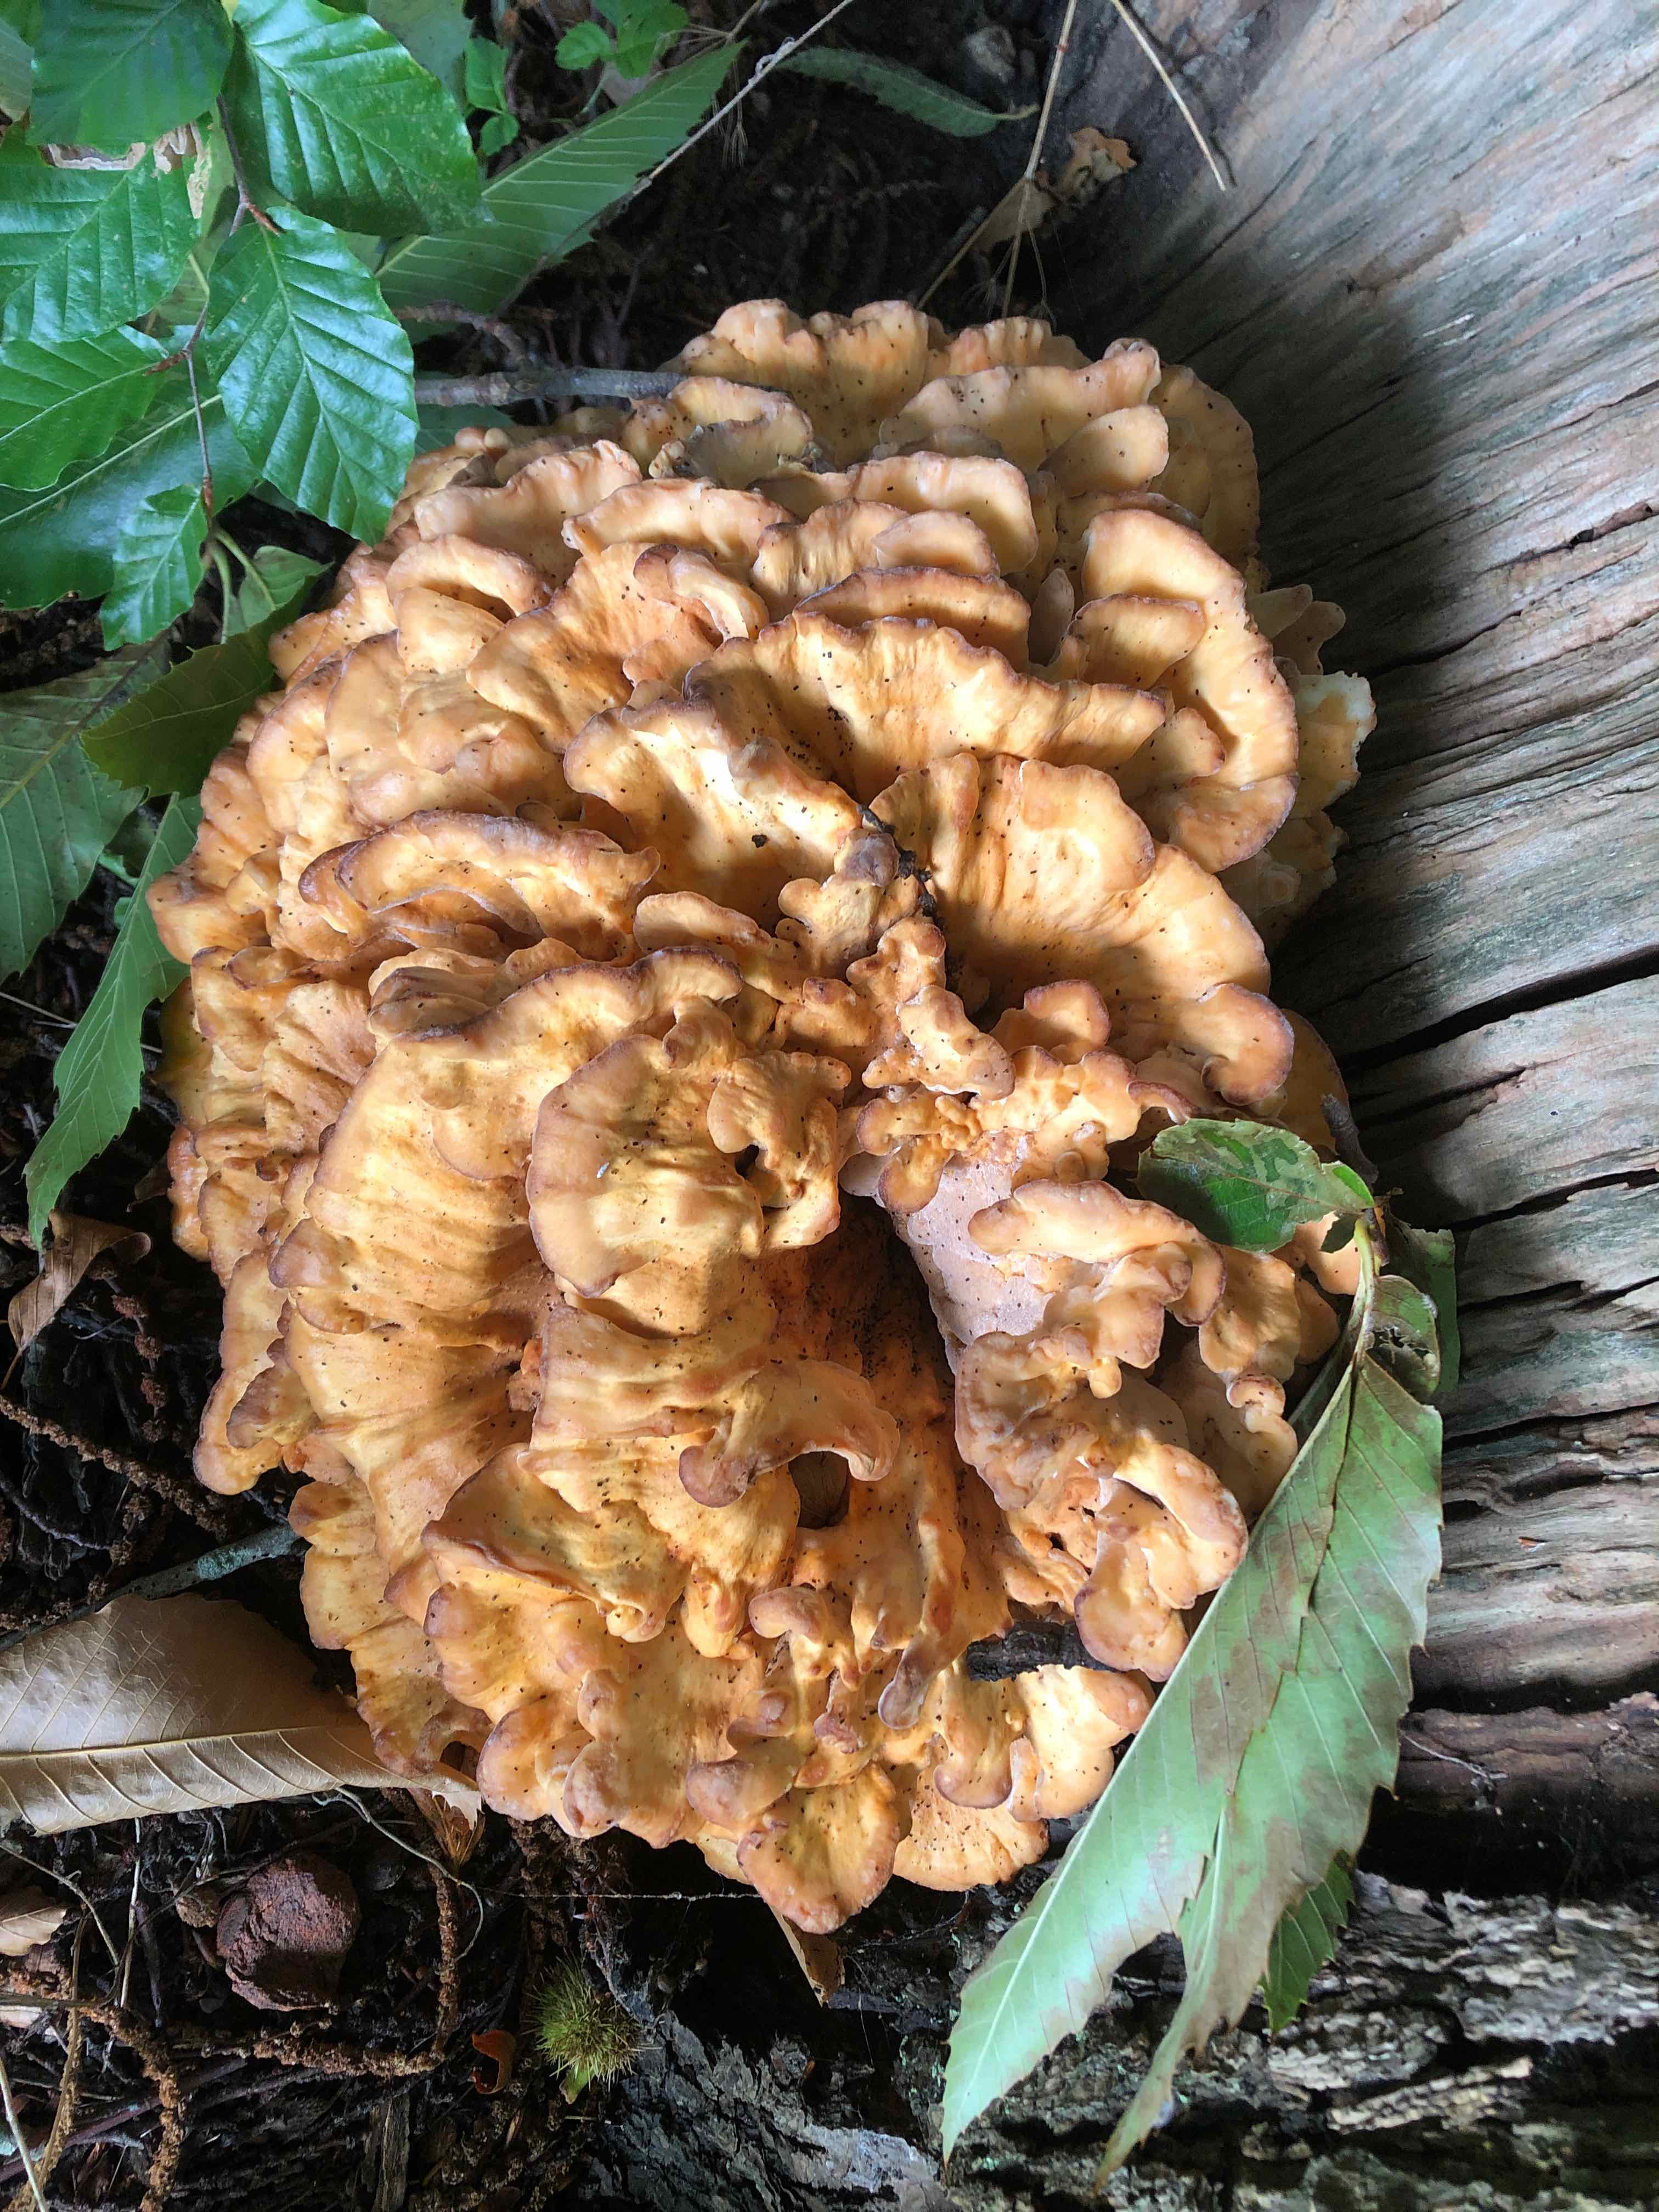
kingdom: Fungi
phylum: Basidiomycota
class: Agaricomycetes
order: Polyporales
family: Meripilaceae
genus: Meripilus
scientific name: Meripilus giganteus
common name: kæmpeporesvamp
